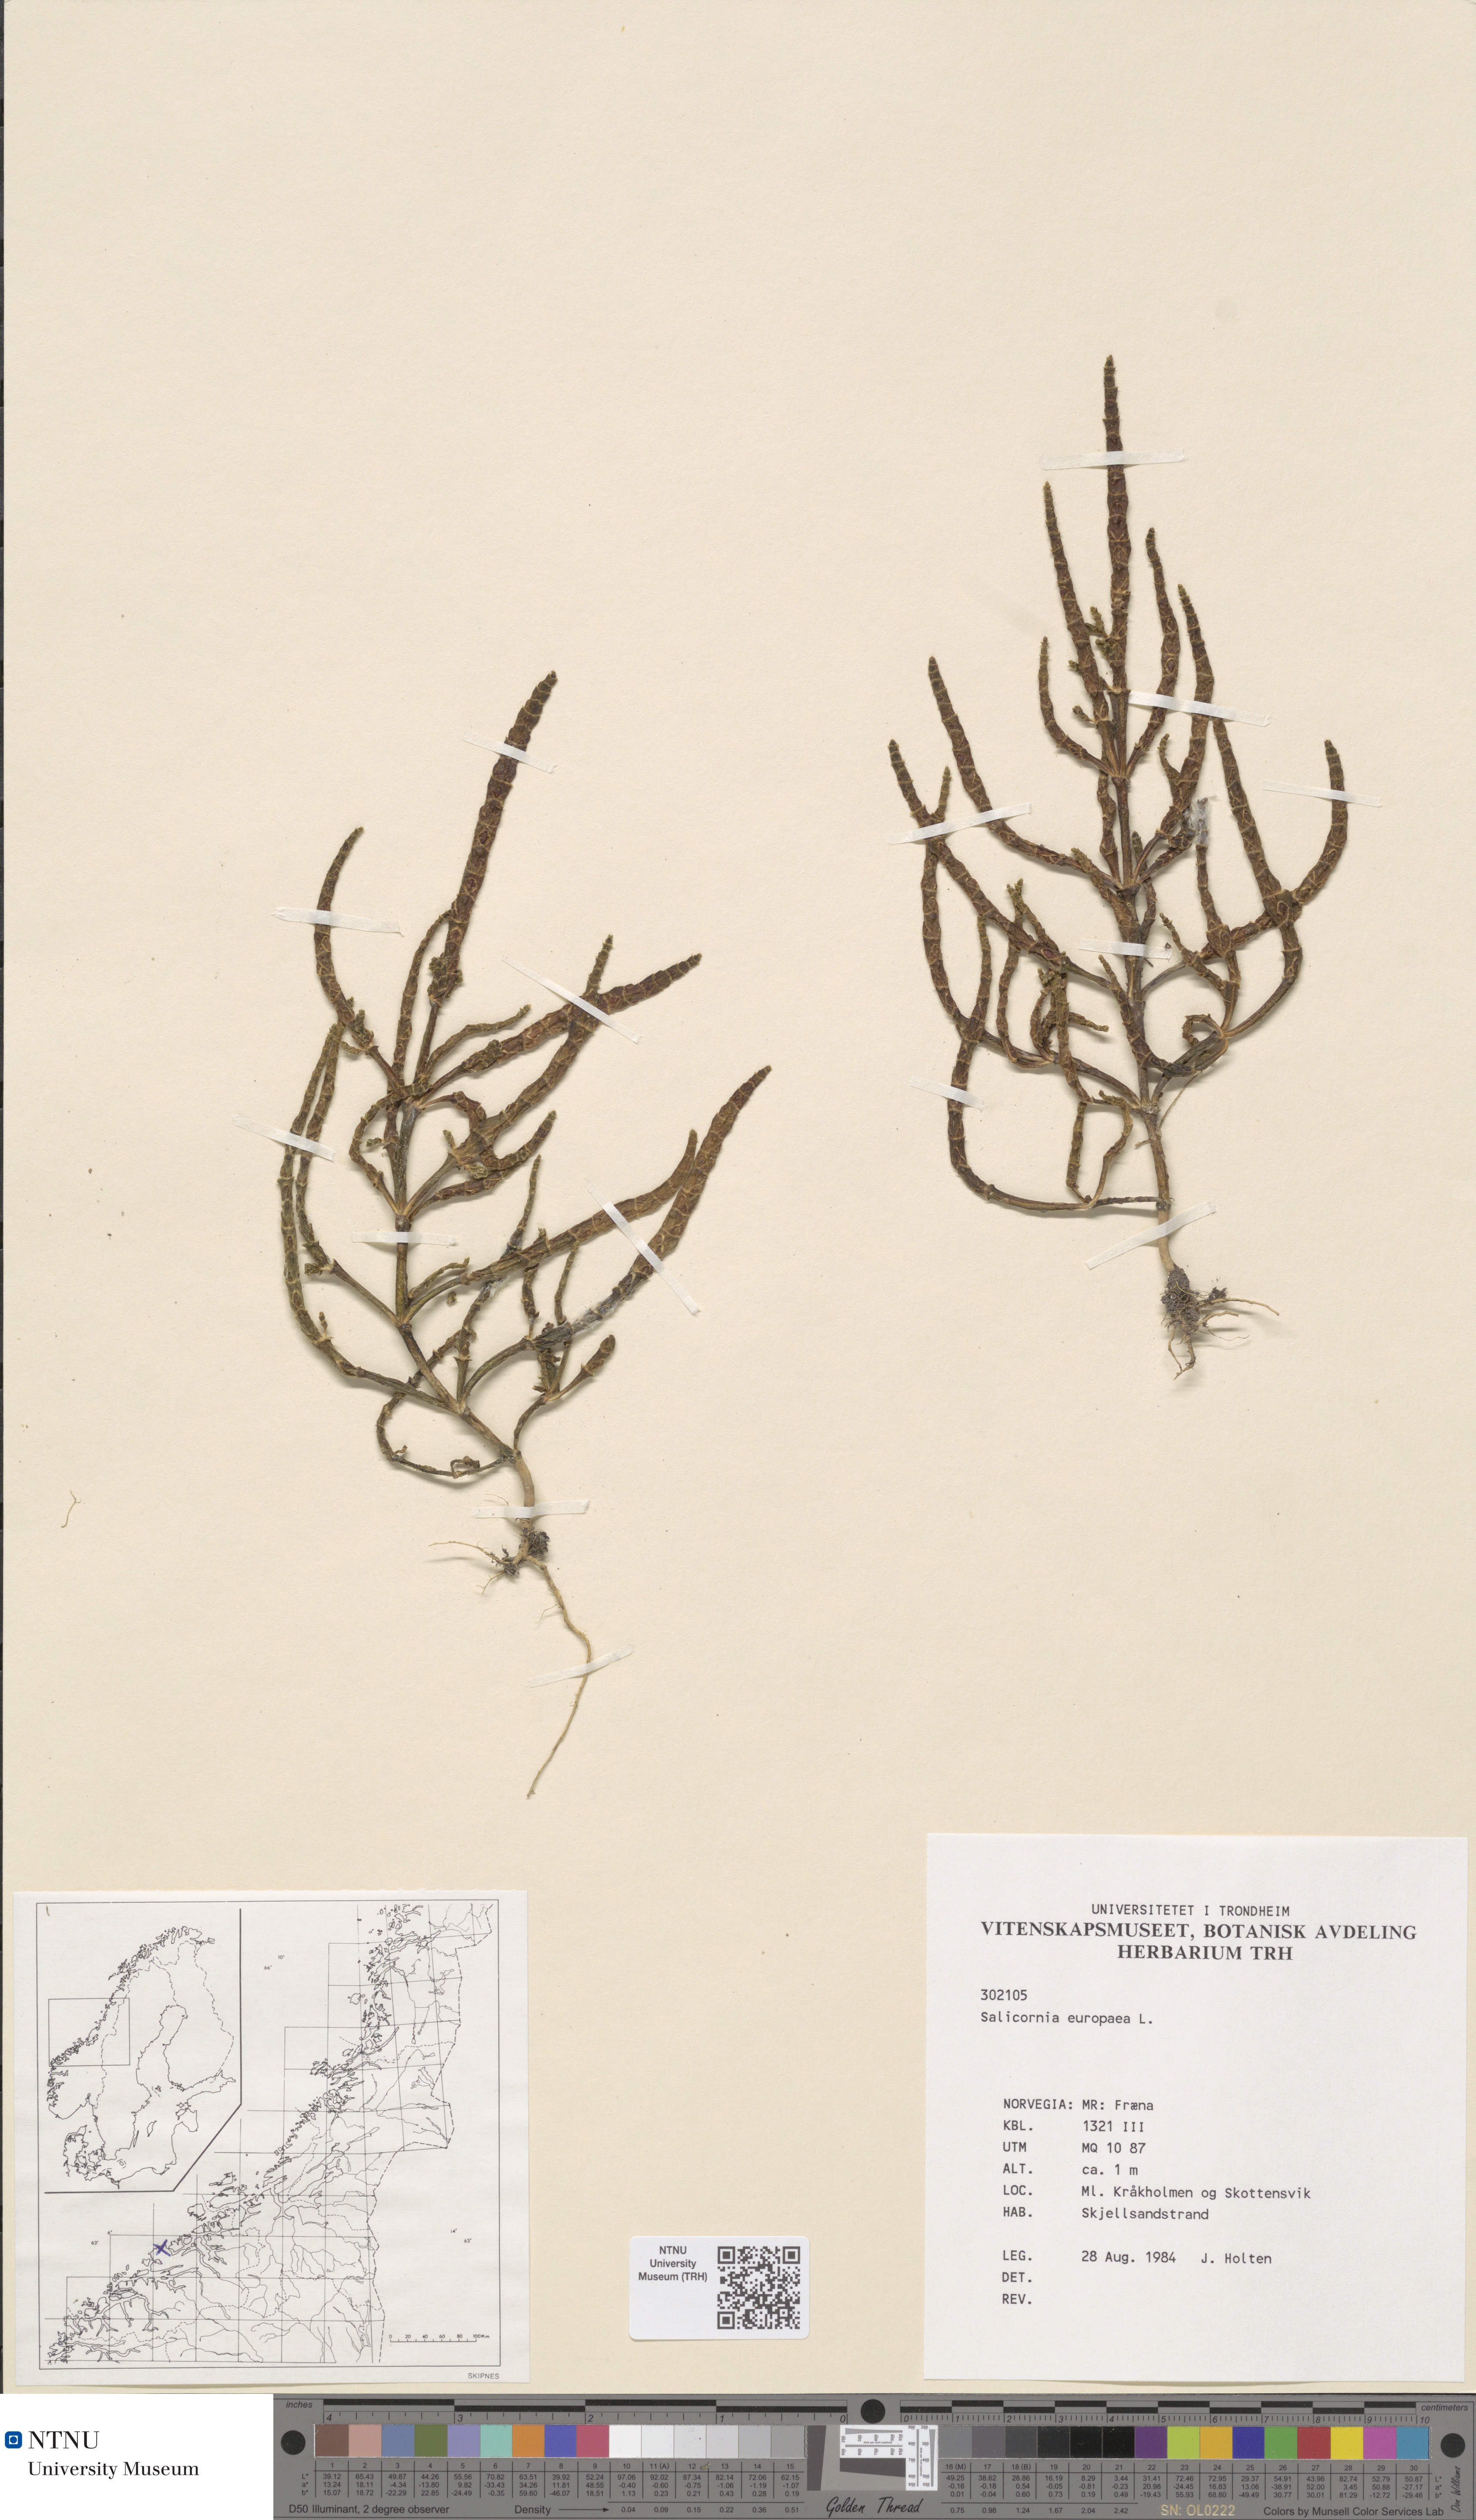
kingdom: Plantae
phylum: Tracheophyta
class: Magnoliopsida
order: Caryophyllales
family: Amaranthaceae
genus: Salicornia
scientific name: Salicornia europaea
